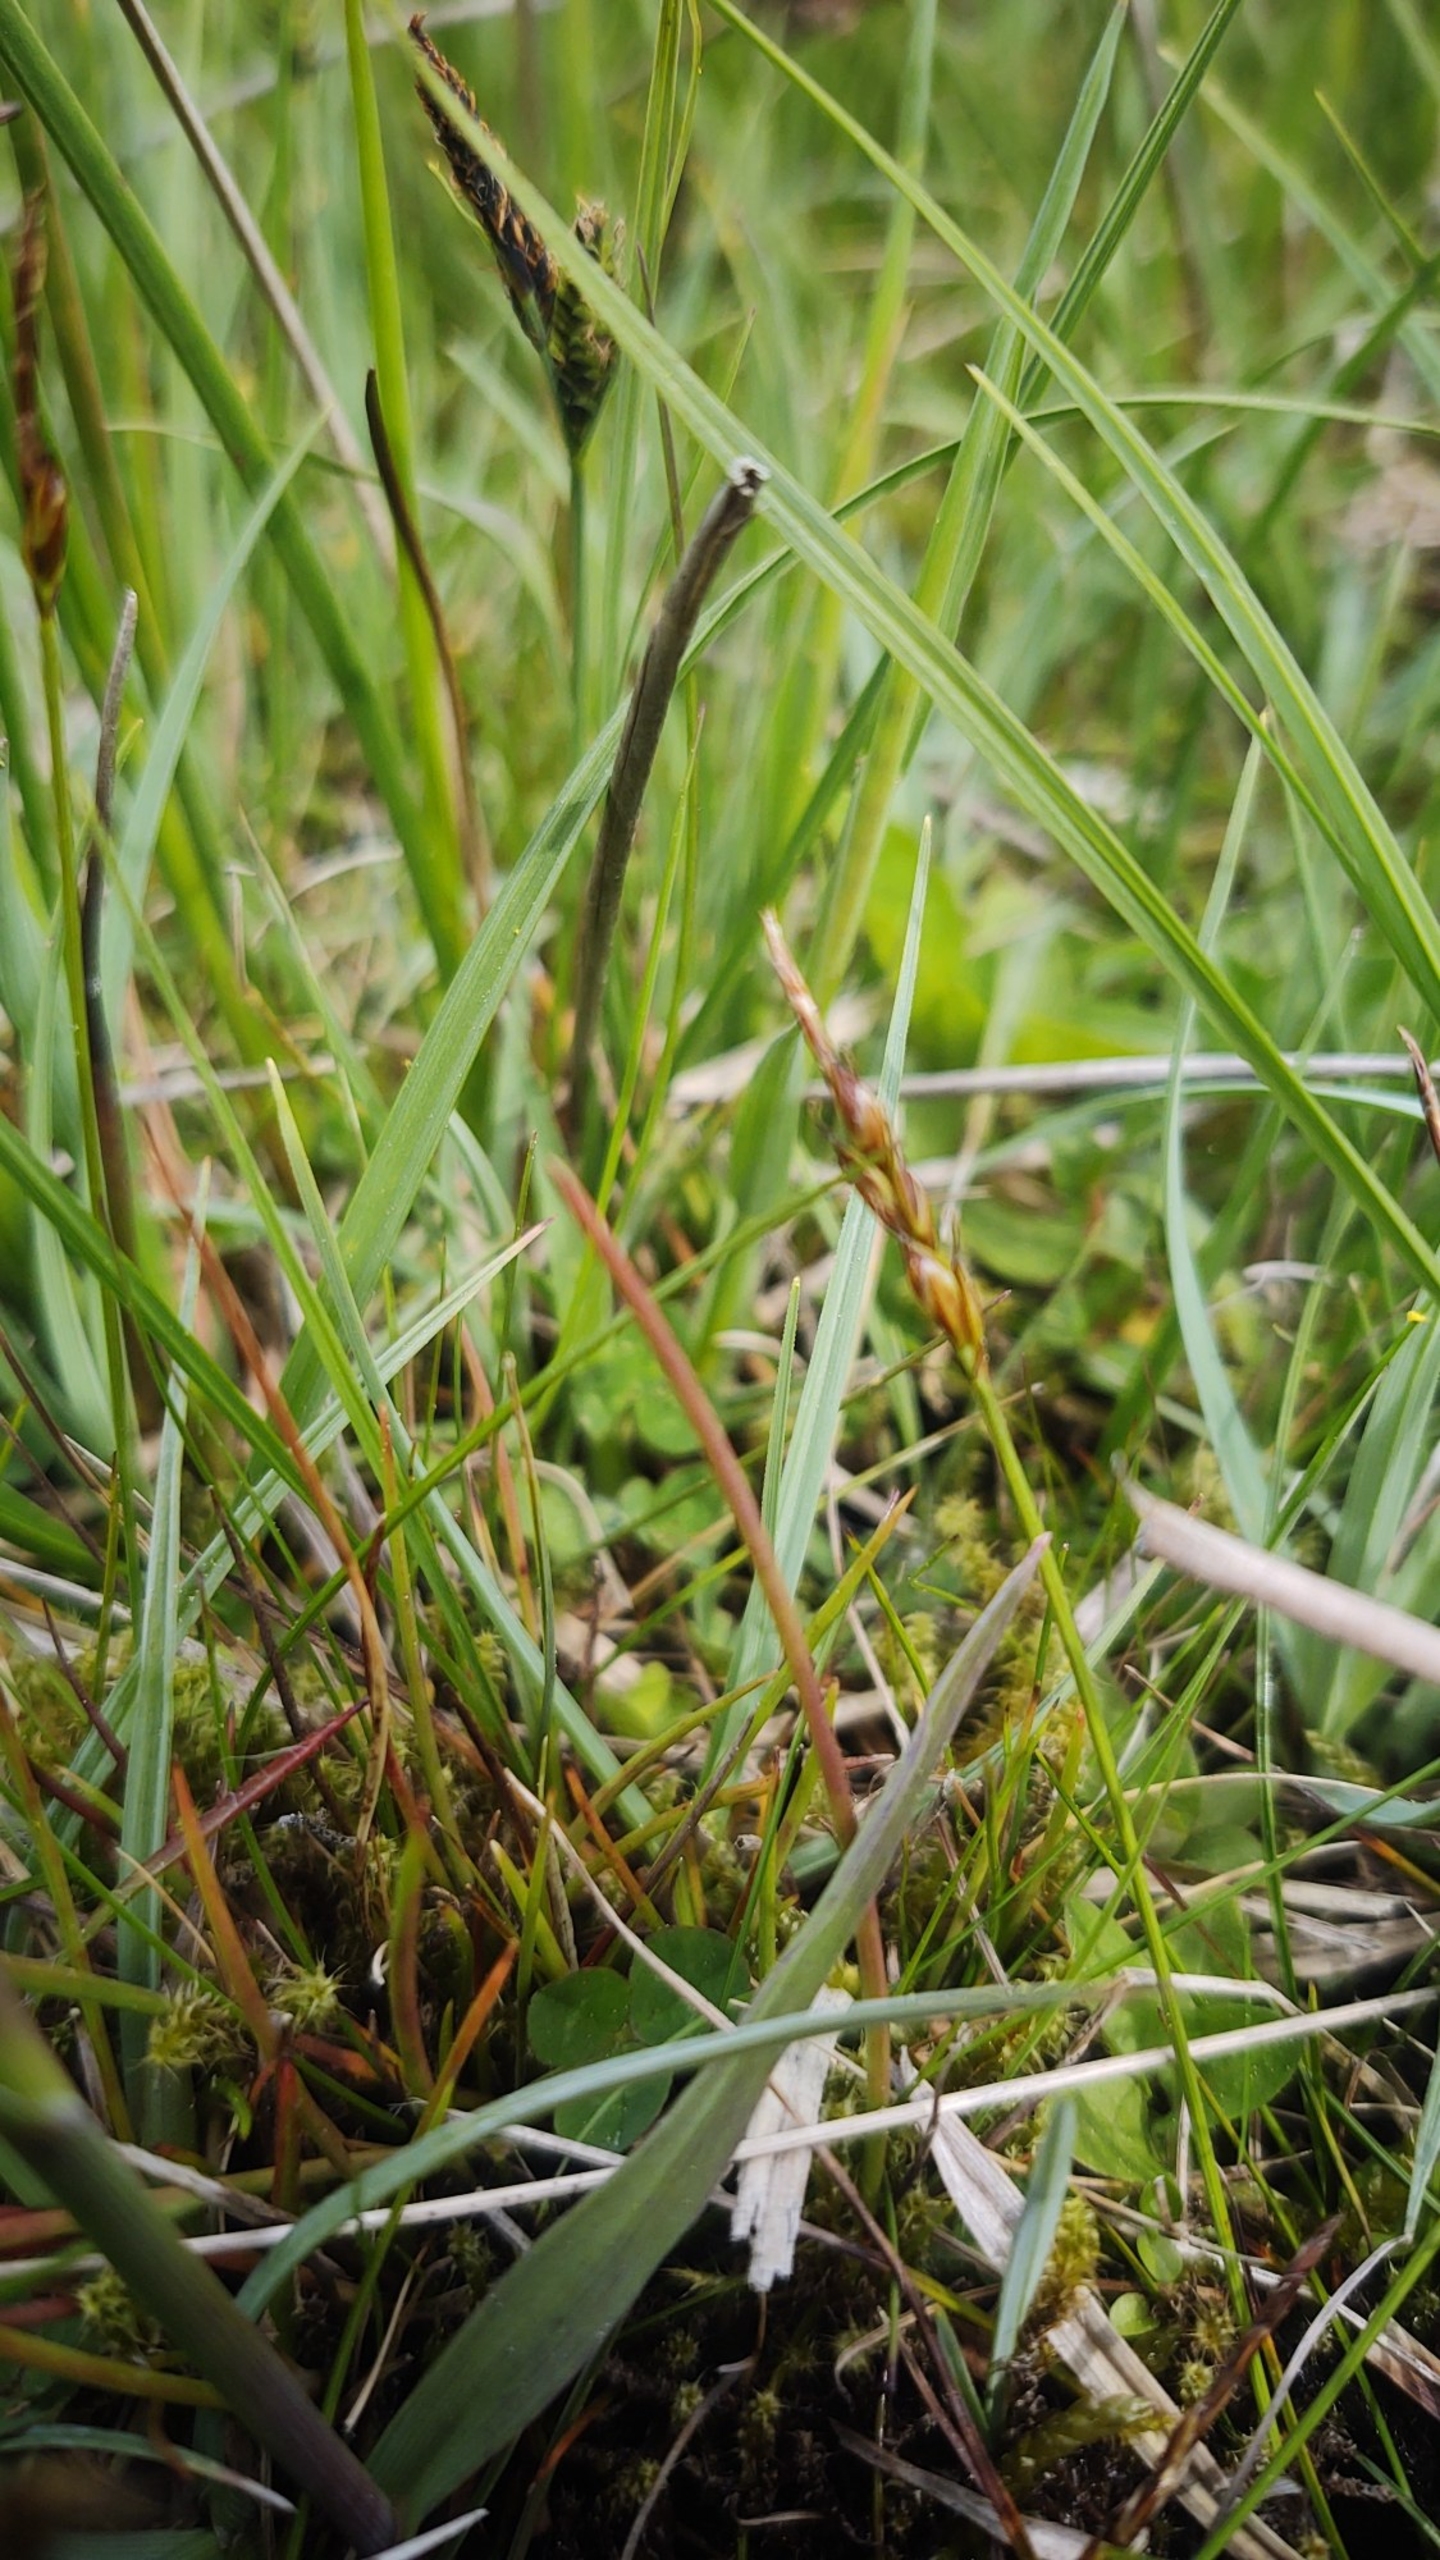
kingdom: Plantae
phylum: Tracheophyta
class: Liliopsida
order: Poales
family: Cyperaceae
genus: Carex
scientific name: Carex pulicaris
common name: Loppe-star
